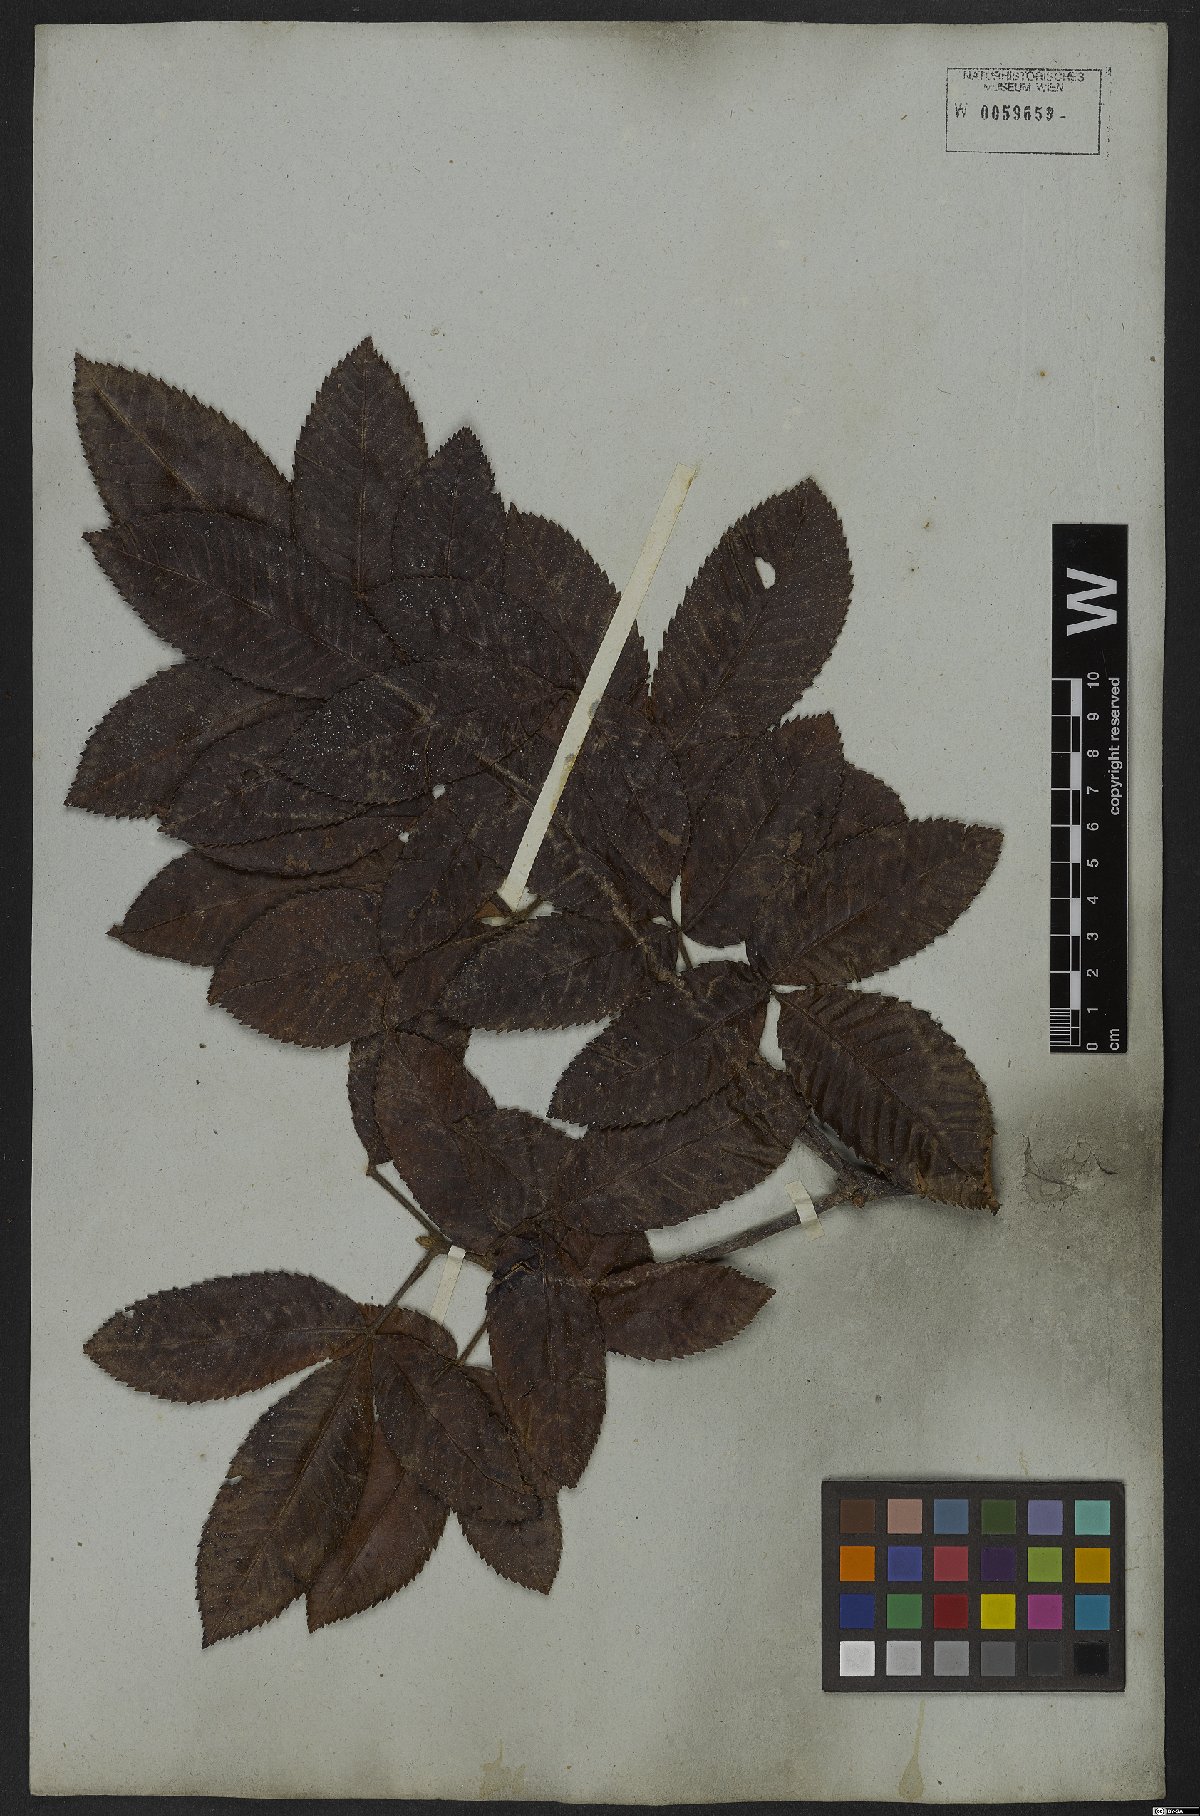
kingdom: Plantae
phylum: Tracheophyta
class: Magnoliopsida
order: Oxalidales
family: Cunoniaceae
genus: Lamanonia
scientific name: Lamanonia ternata
